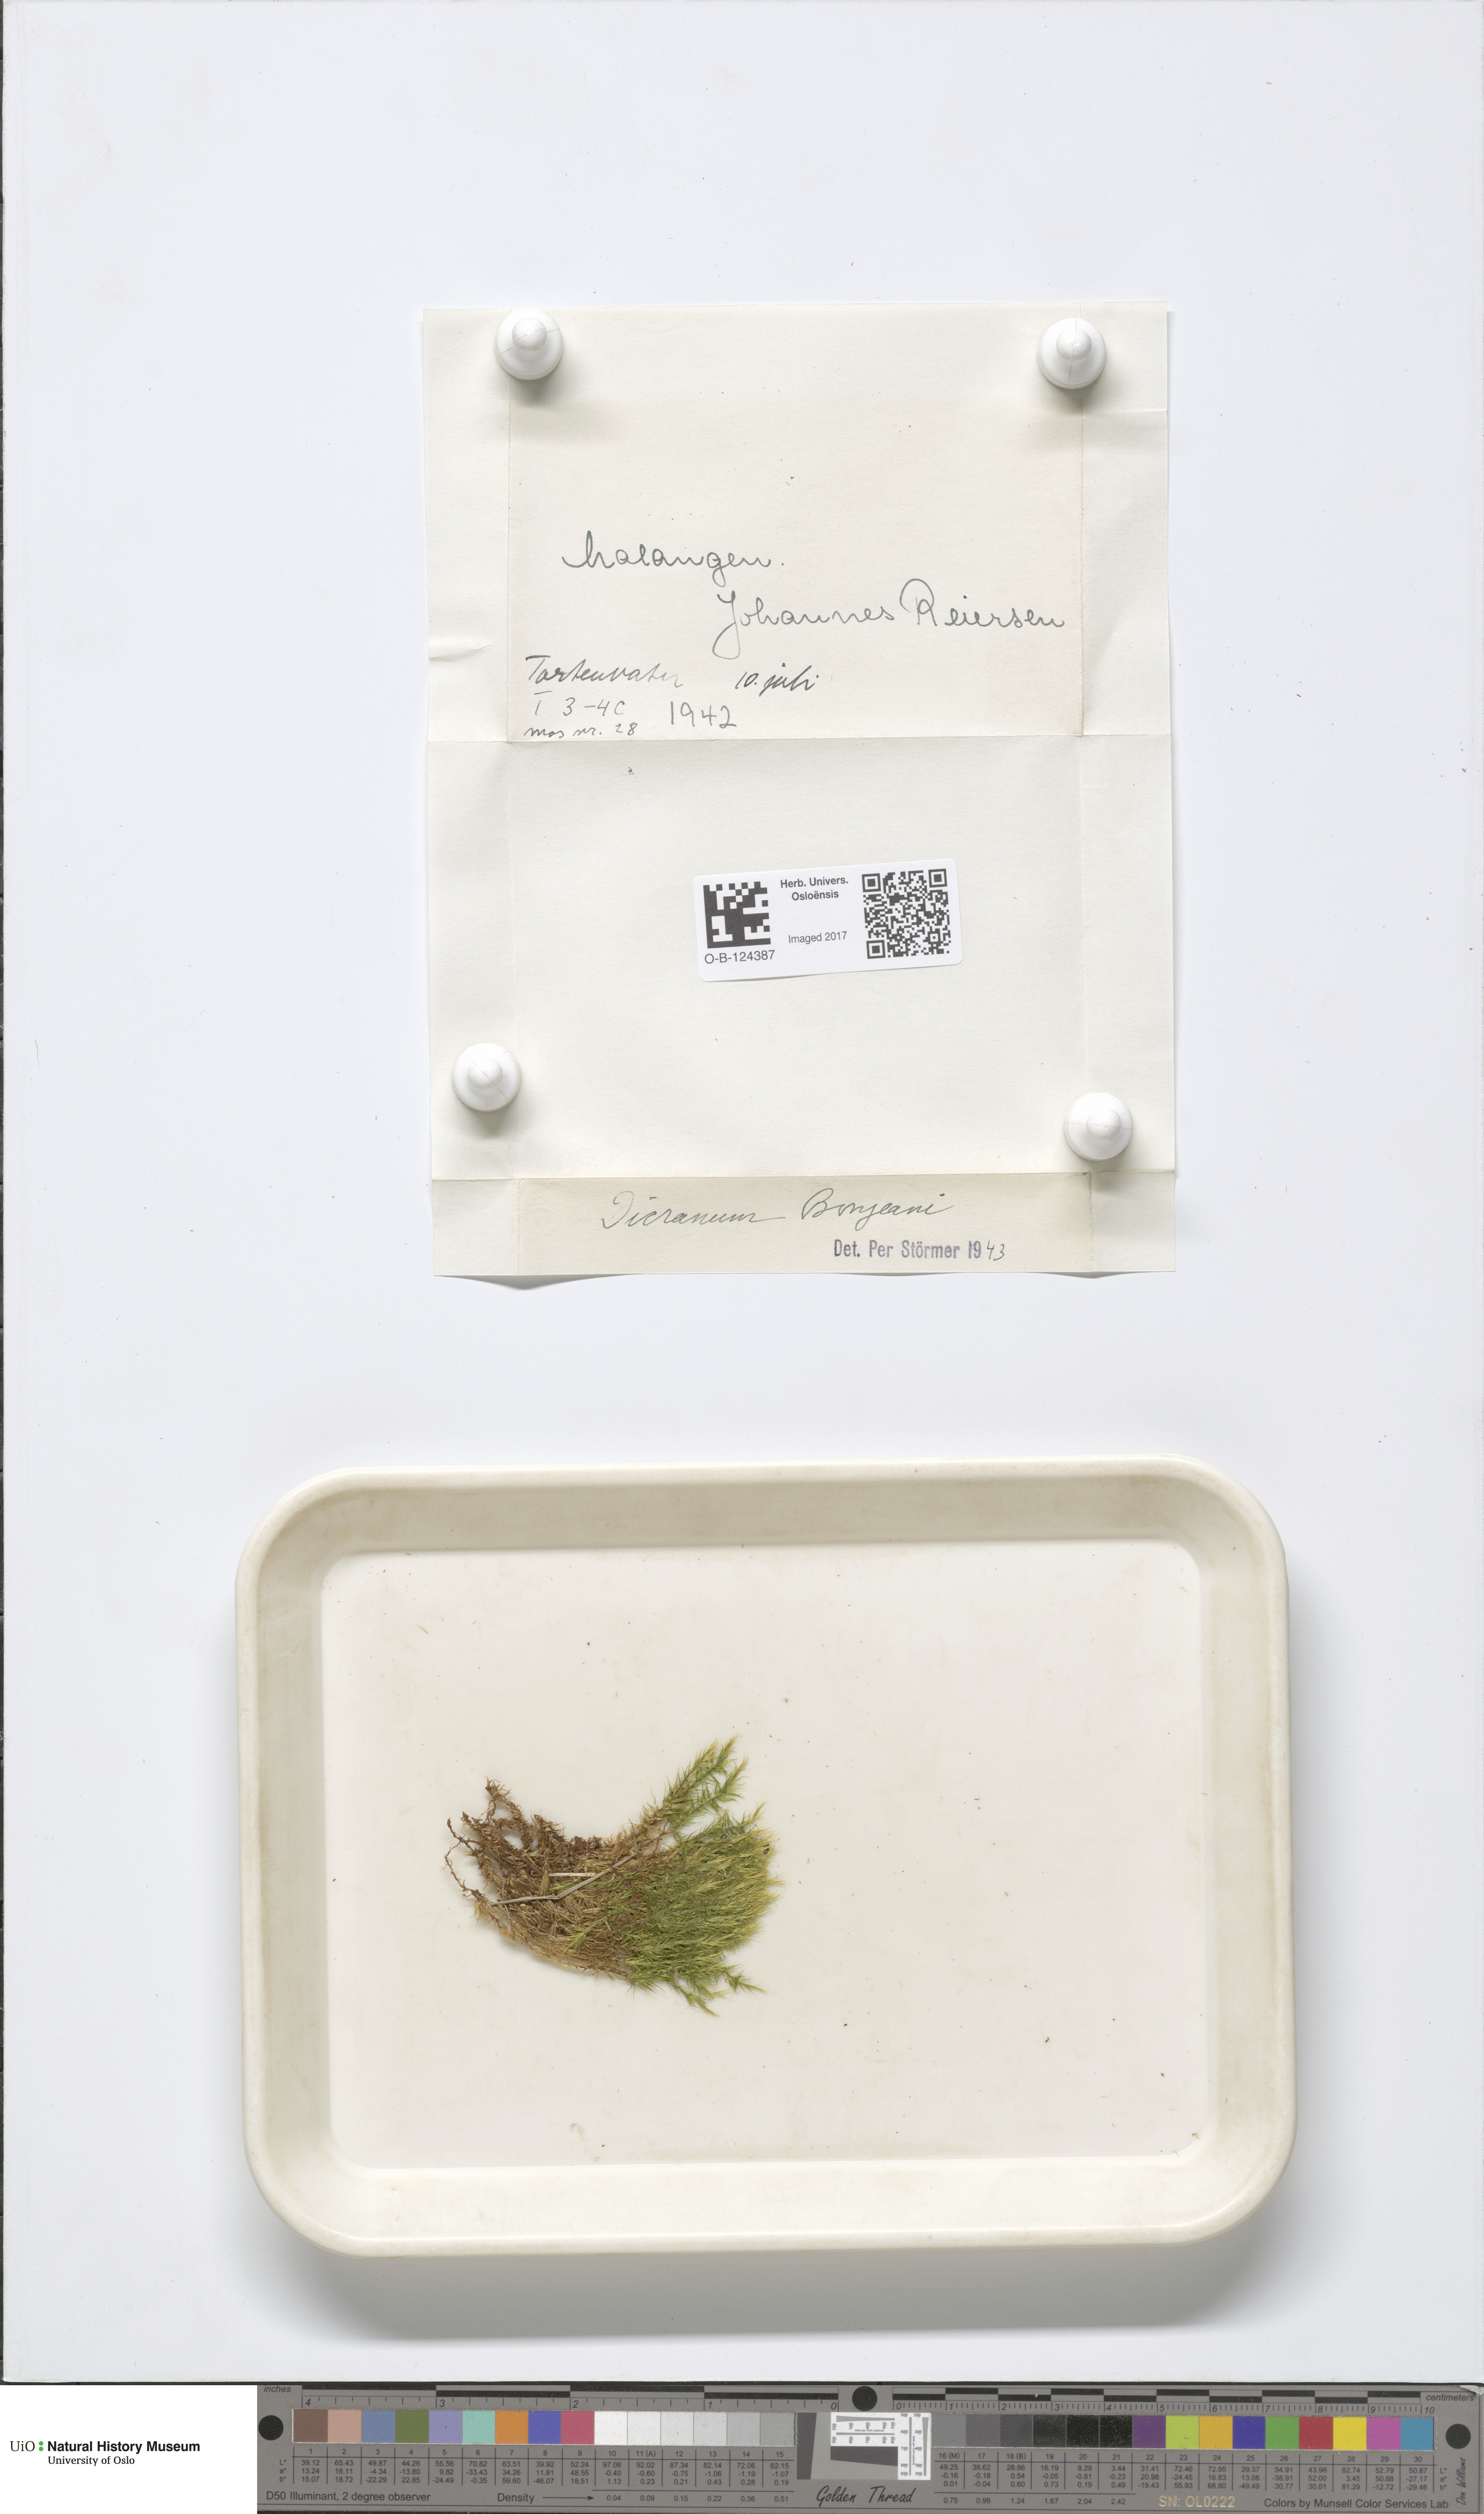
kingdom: Plantae
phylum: Bryophyta
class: Bryopsida
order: Dicranales
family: Dicranaceae
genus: Dicranum
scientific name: Dicranum bonjeanii
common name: Bonjean's broom moss
